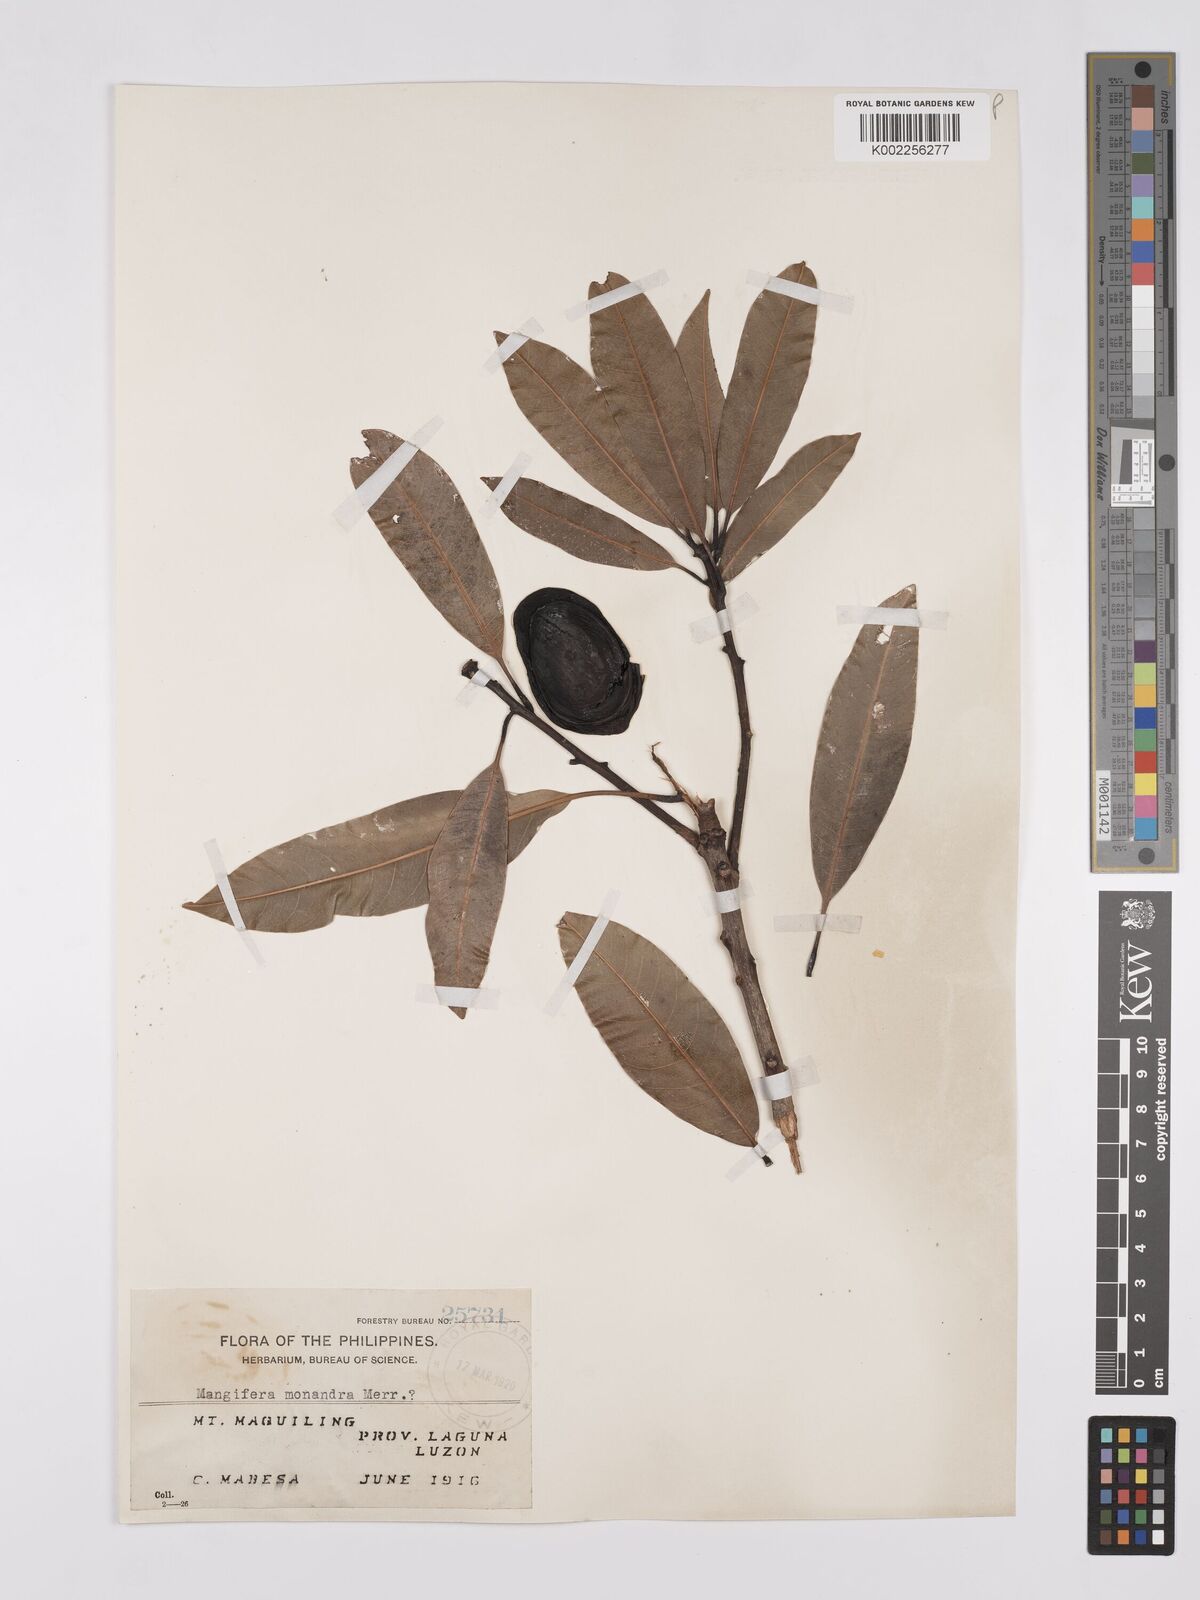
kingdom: Plantae
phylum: Tracheophyta
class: Magnoliopsida
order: Sapindales
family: Anacardiaceae
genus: Mangifera
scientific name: Mangifera monandra
